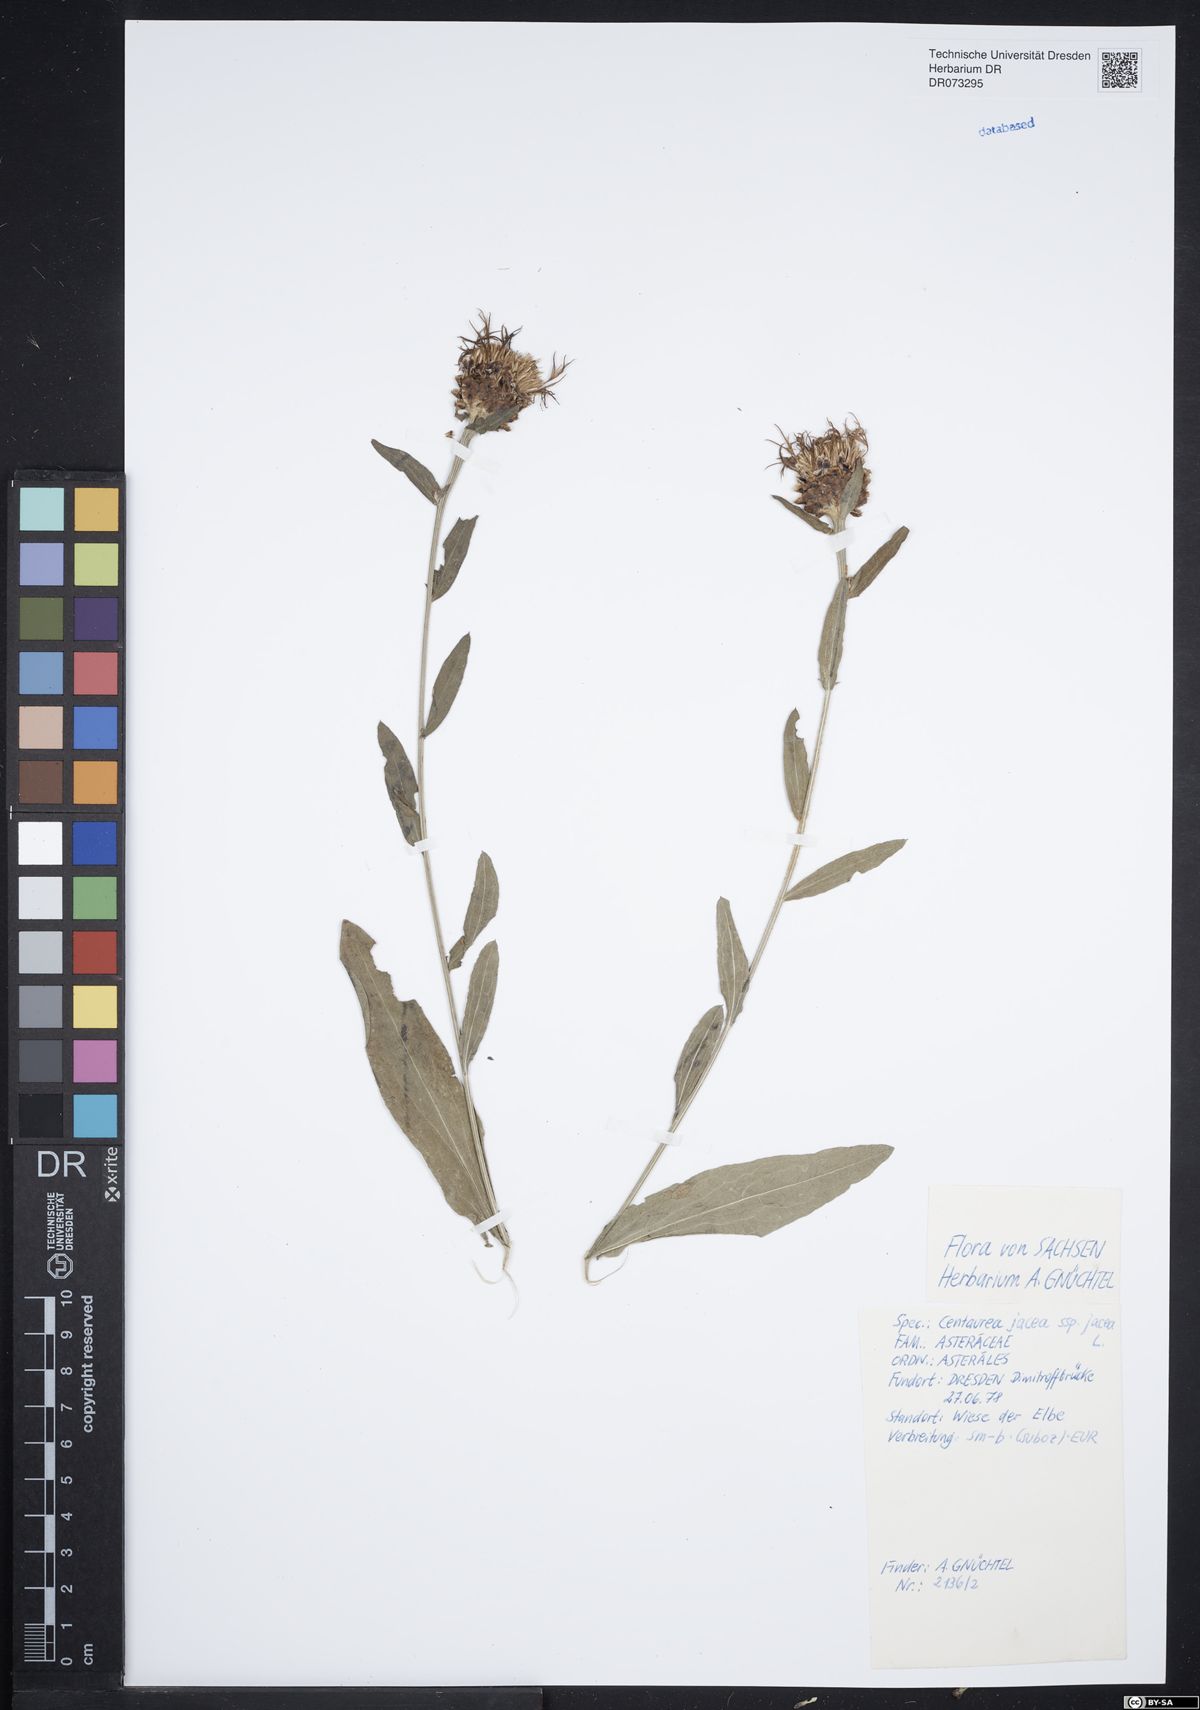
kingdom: Plantae
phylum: Tracheophyta
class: Magnoliopsida
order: Asterales
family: Asteraceae
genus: Centaurea
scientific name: Centaurea jacea
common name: Brown knapweed
